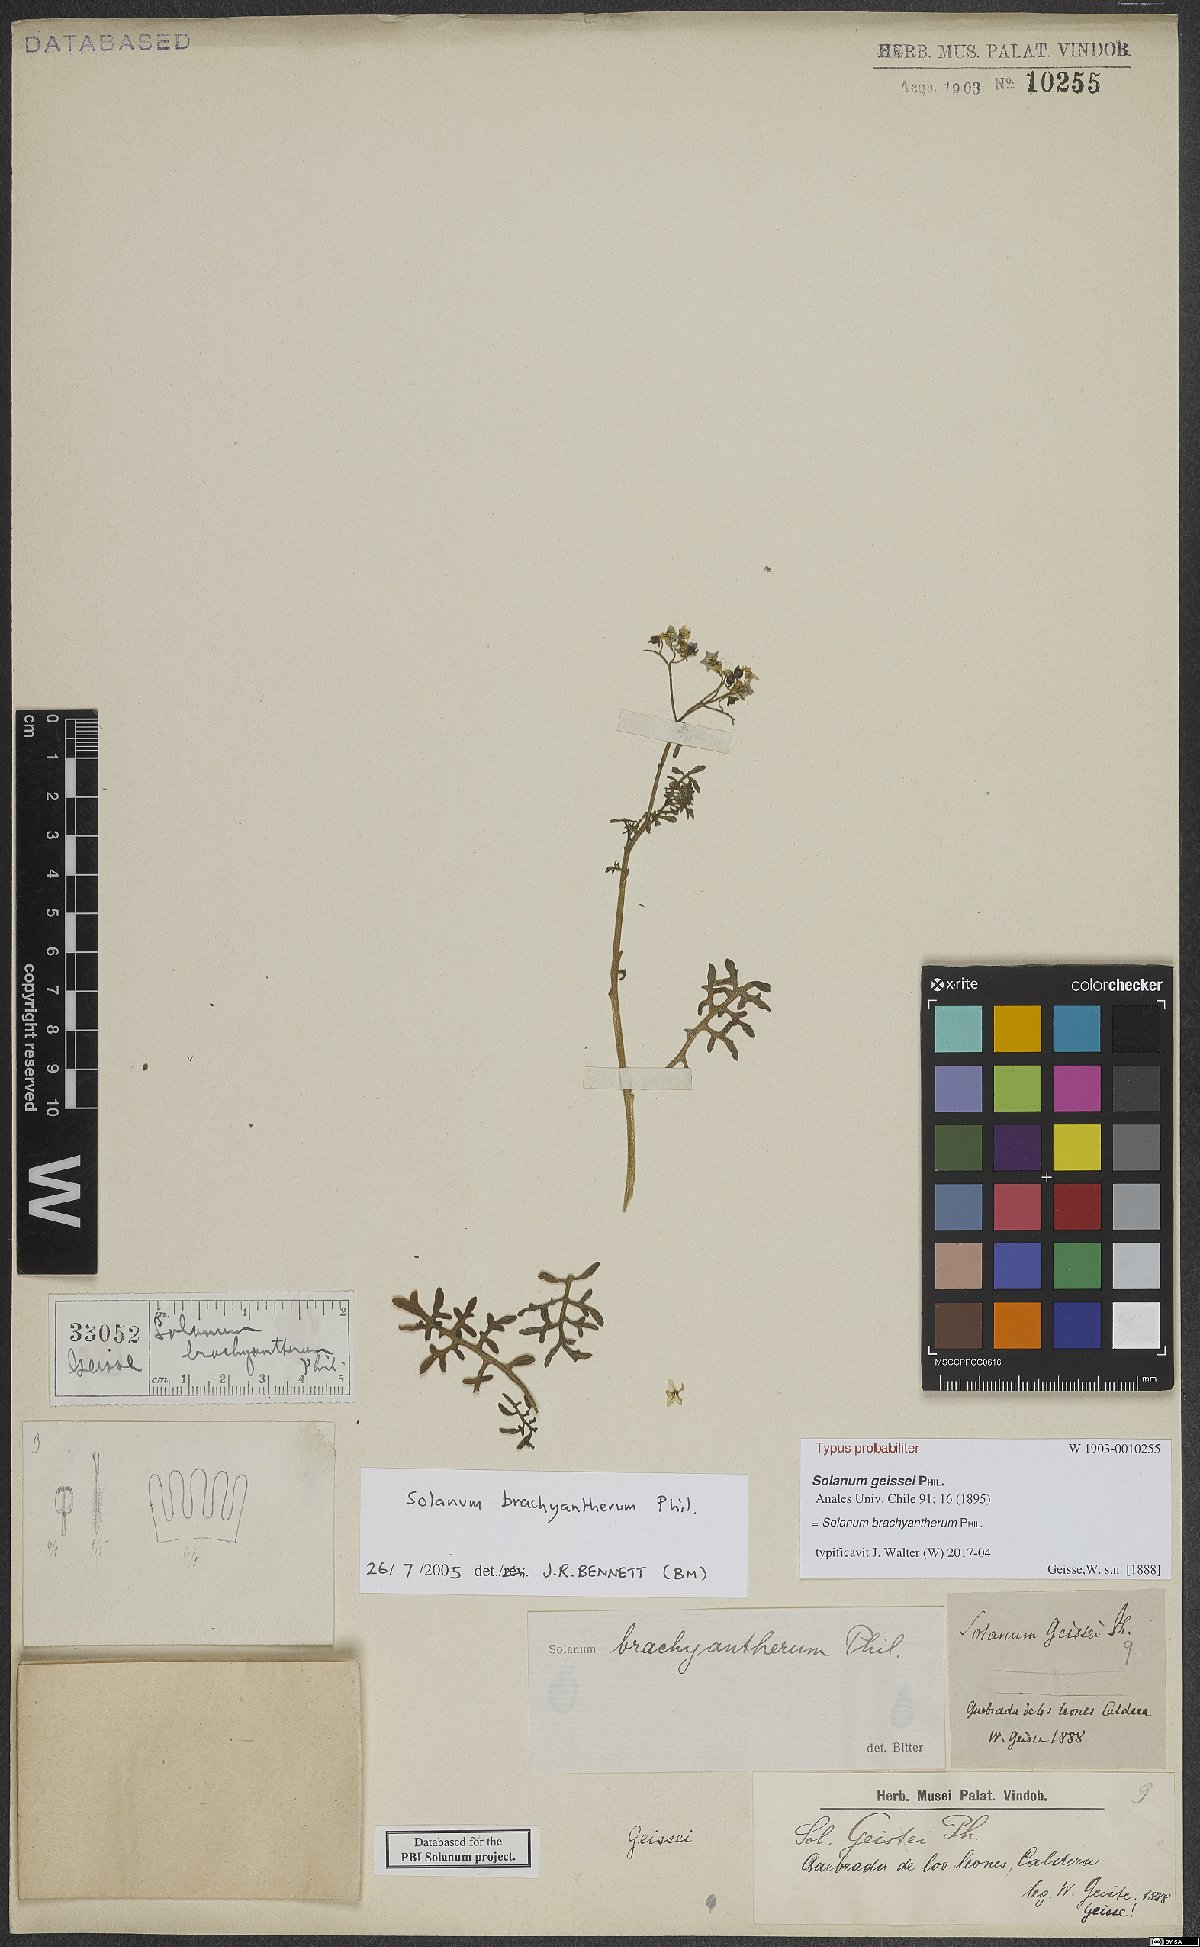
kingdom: Plantae
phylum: Tracheophyta
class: Magnoliopsida
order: Solanales
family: Solanaceae
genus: Solanum
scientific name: Solanum brachyantherum
